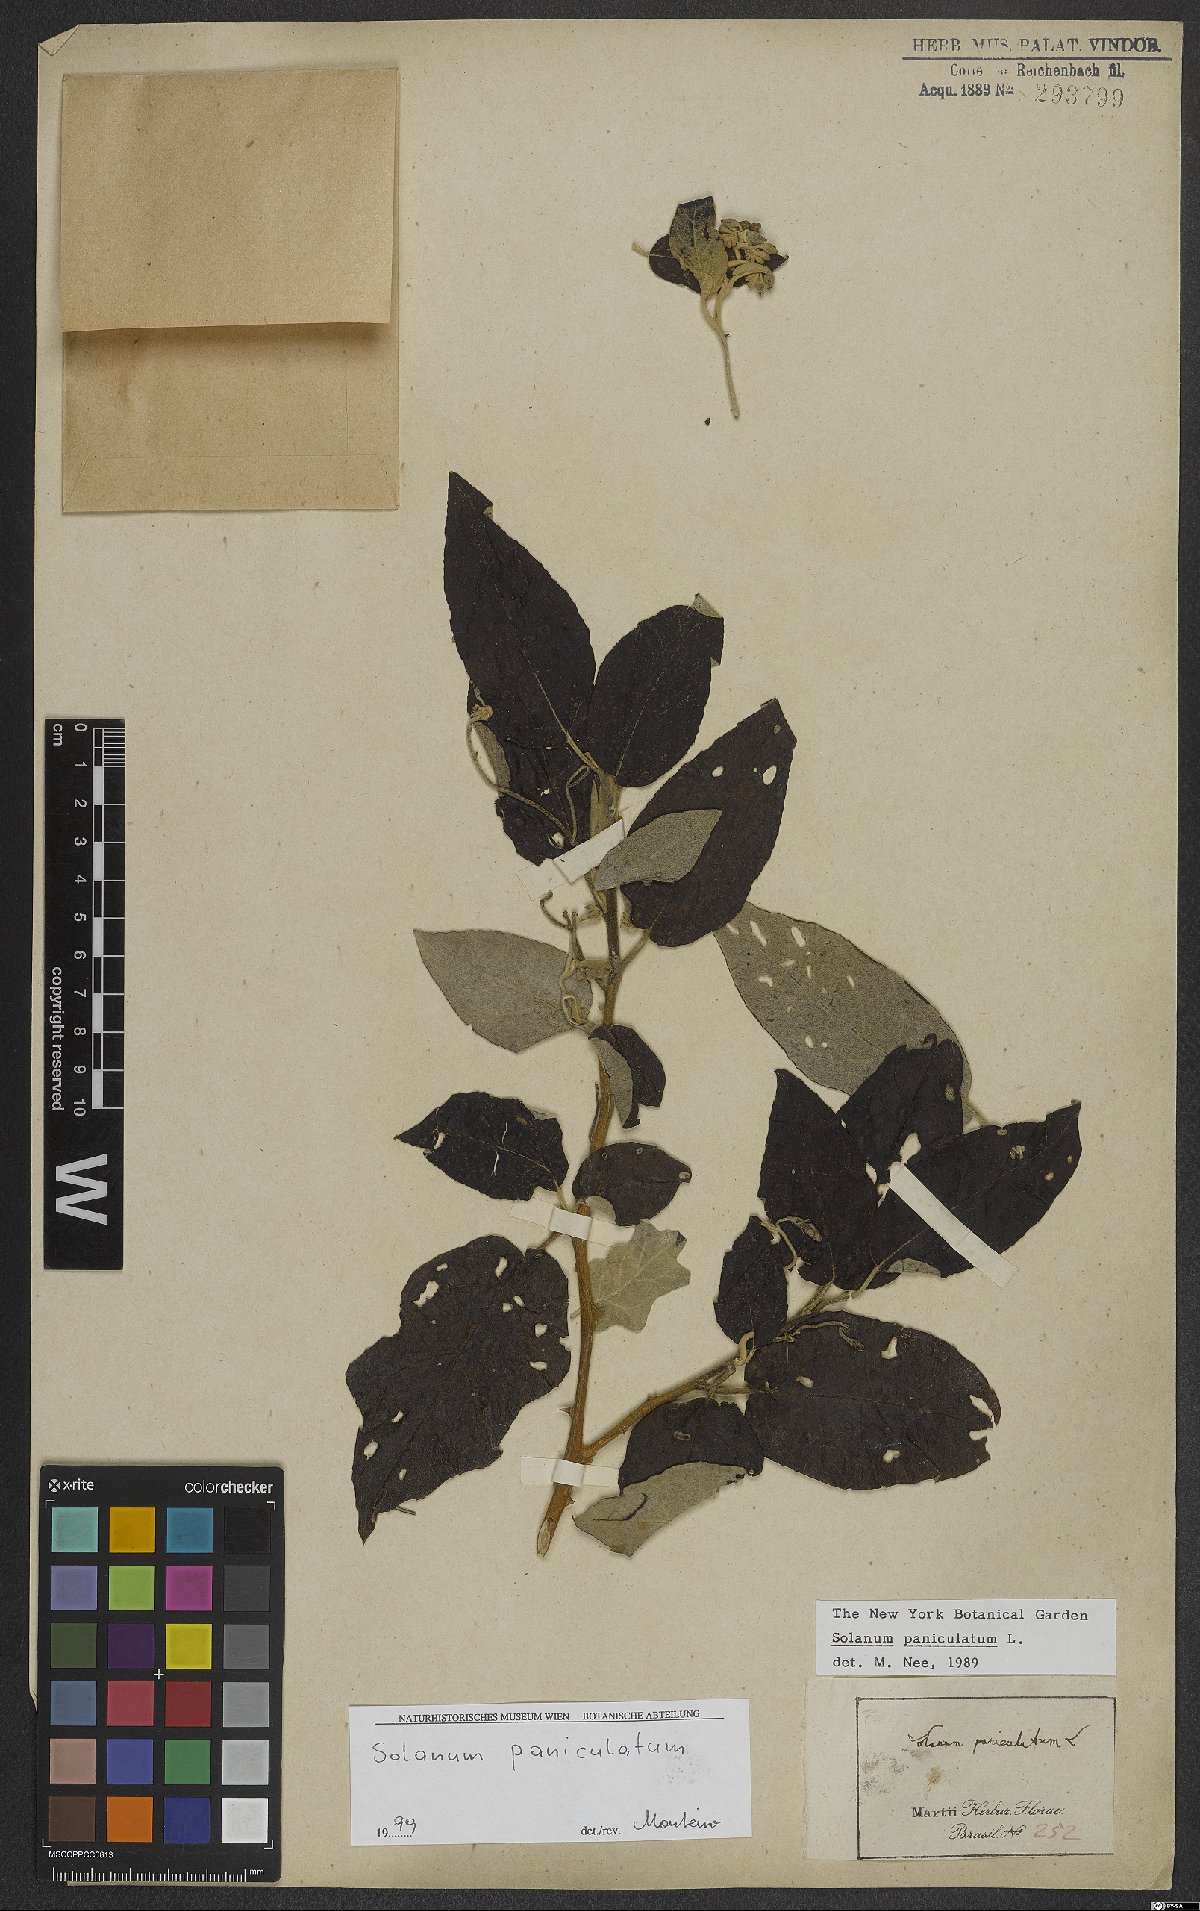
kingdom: Plantae
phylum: Tracheophyta
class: Magnoliopsida
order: Solanales
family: Solanaceae
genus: Solanum
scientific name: Solanum paniculatum
